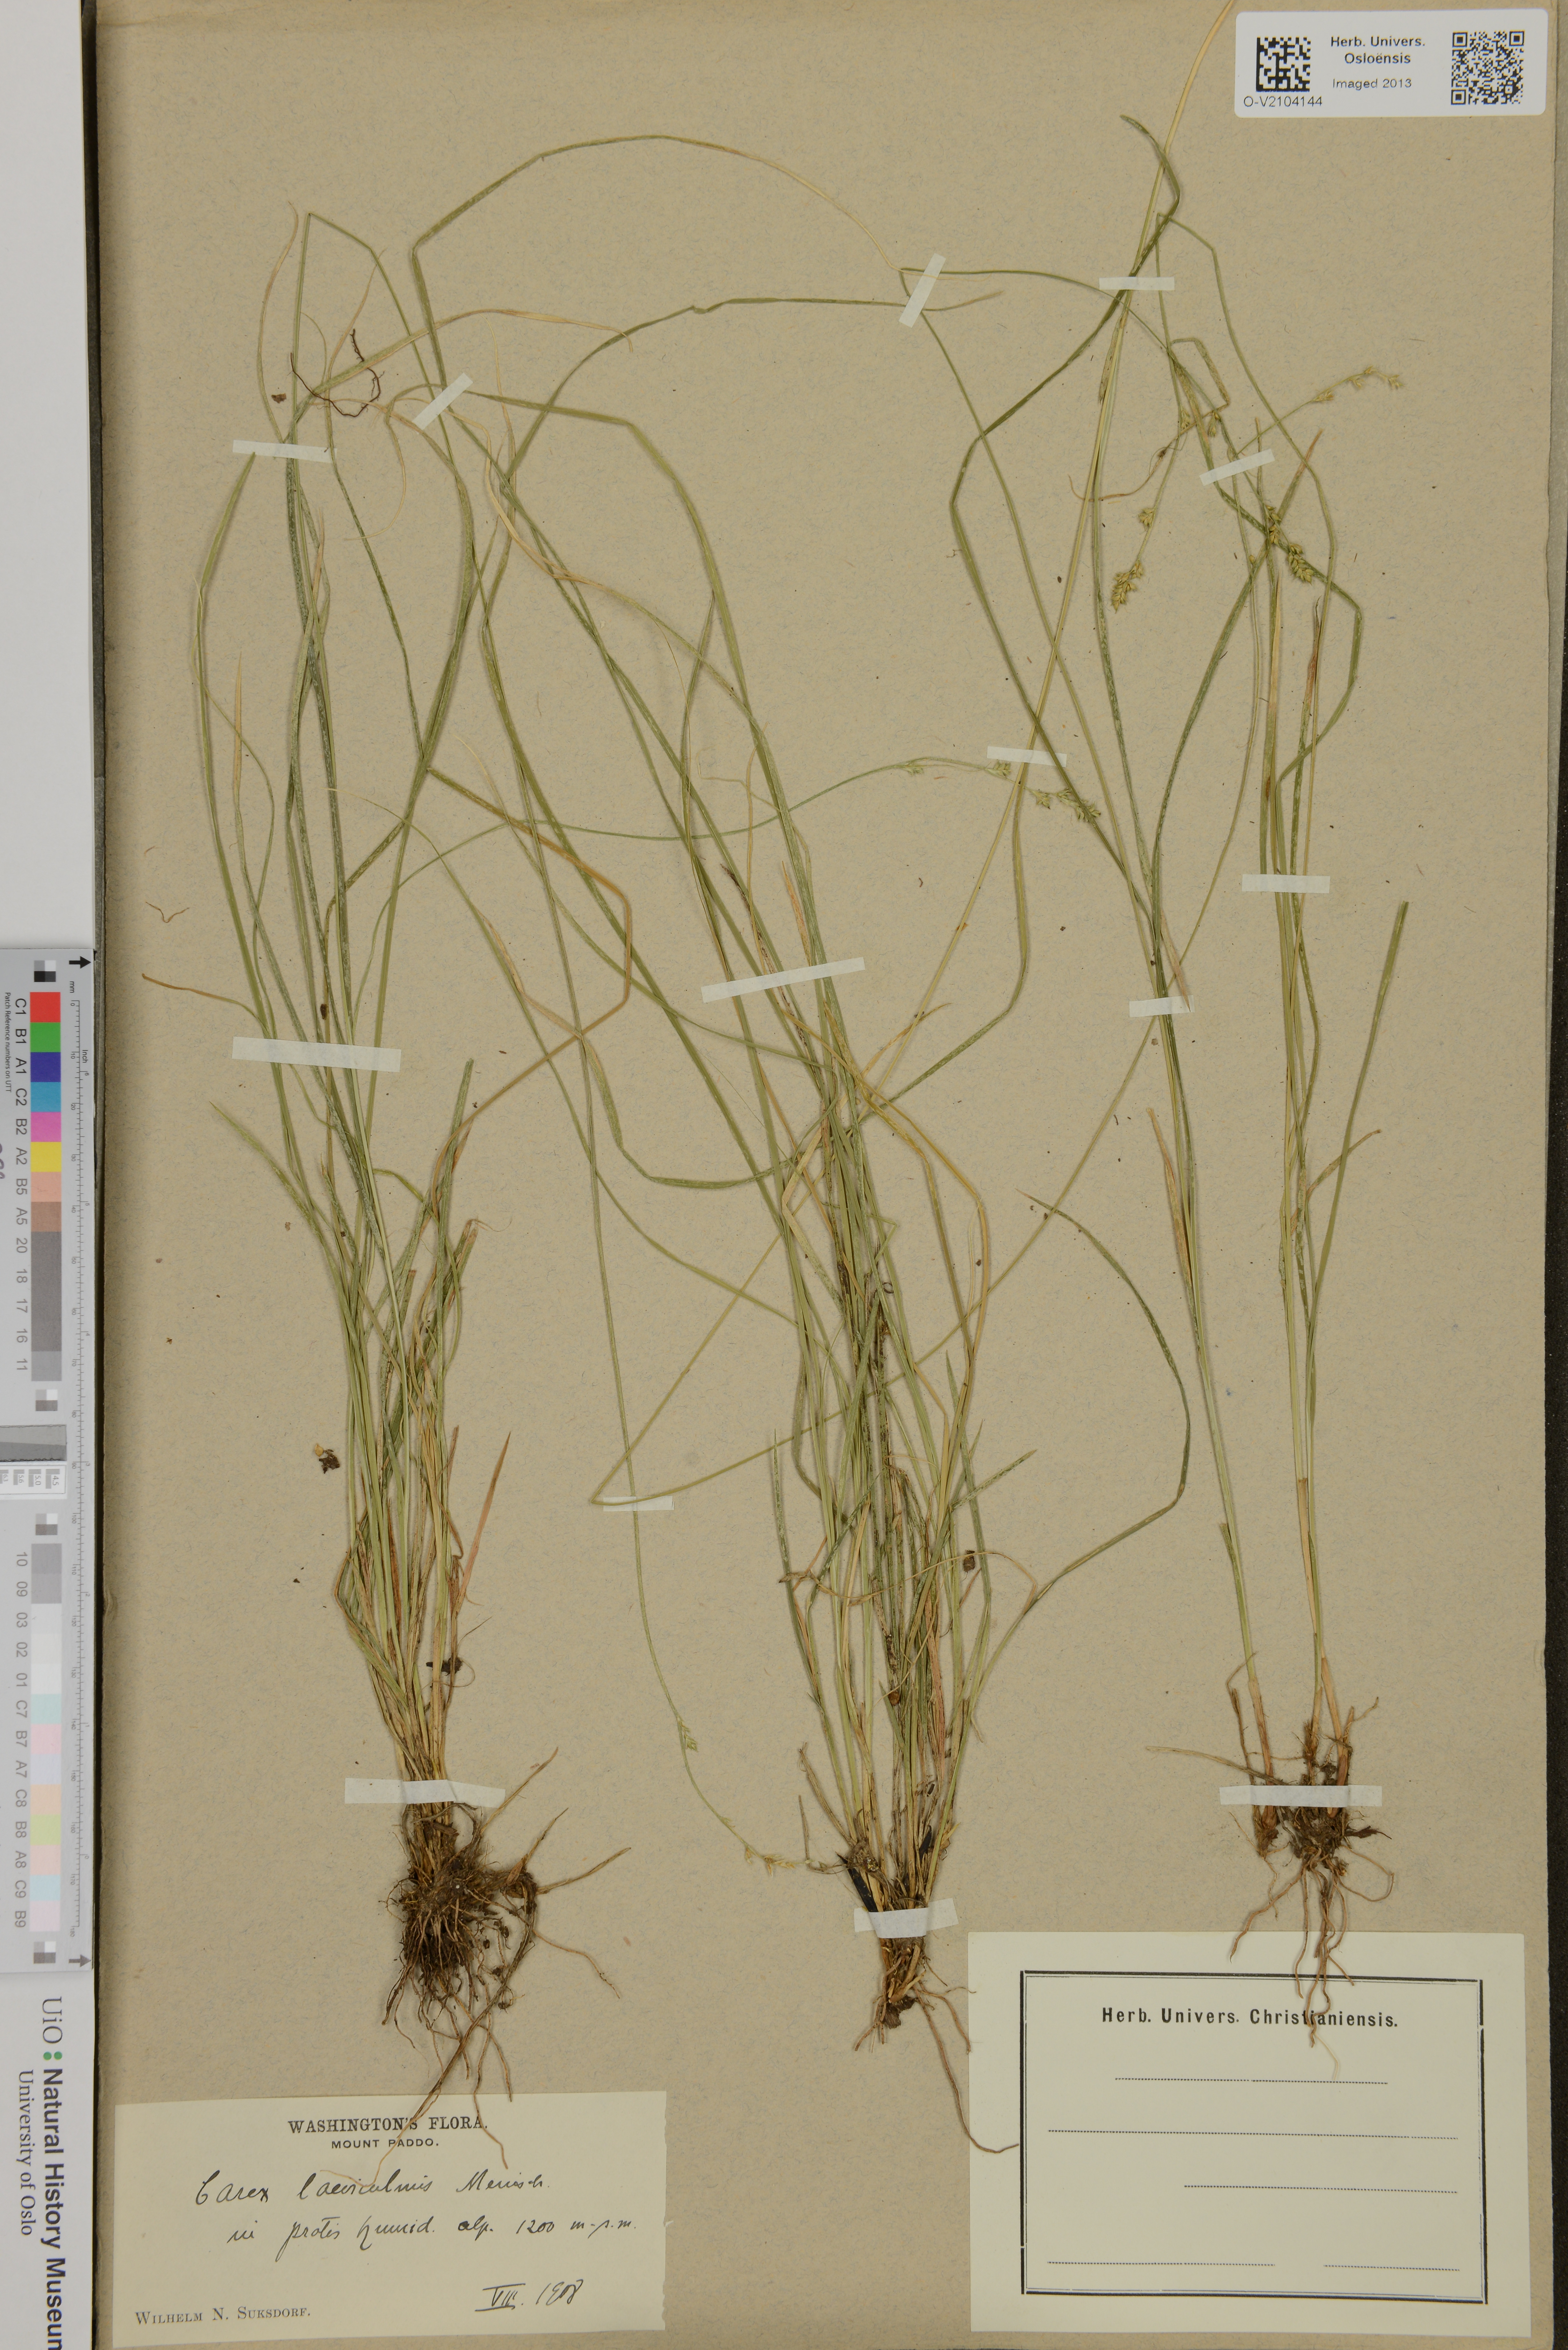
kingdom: Plantae
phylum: Tracheophyta
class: Liliopsida
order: Poales
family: Cyperaceae
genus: Carex
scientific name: Carex kreczetoviczii
